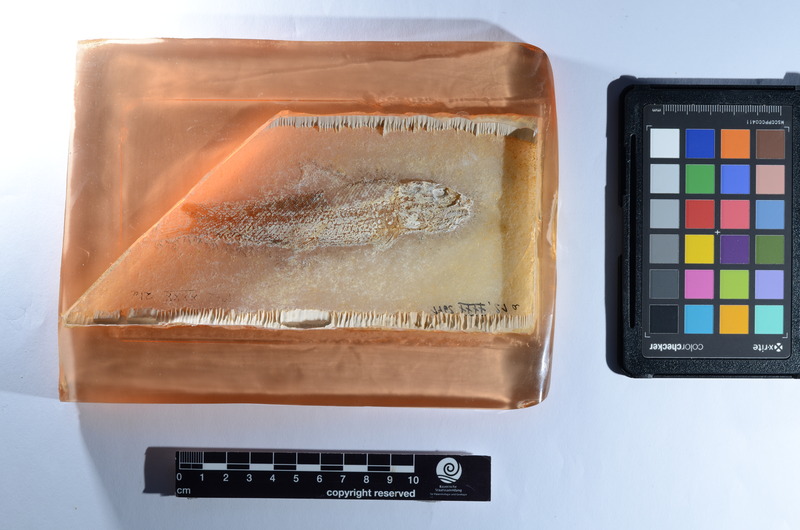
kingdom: Animalia
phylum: Chordata
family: Ophiopsiellidae
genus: Ophiopsiella
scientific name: Ophiopsiella attenuata
